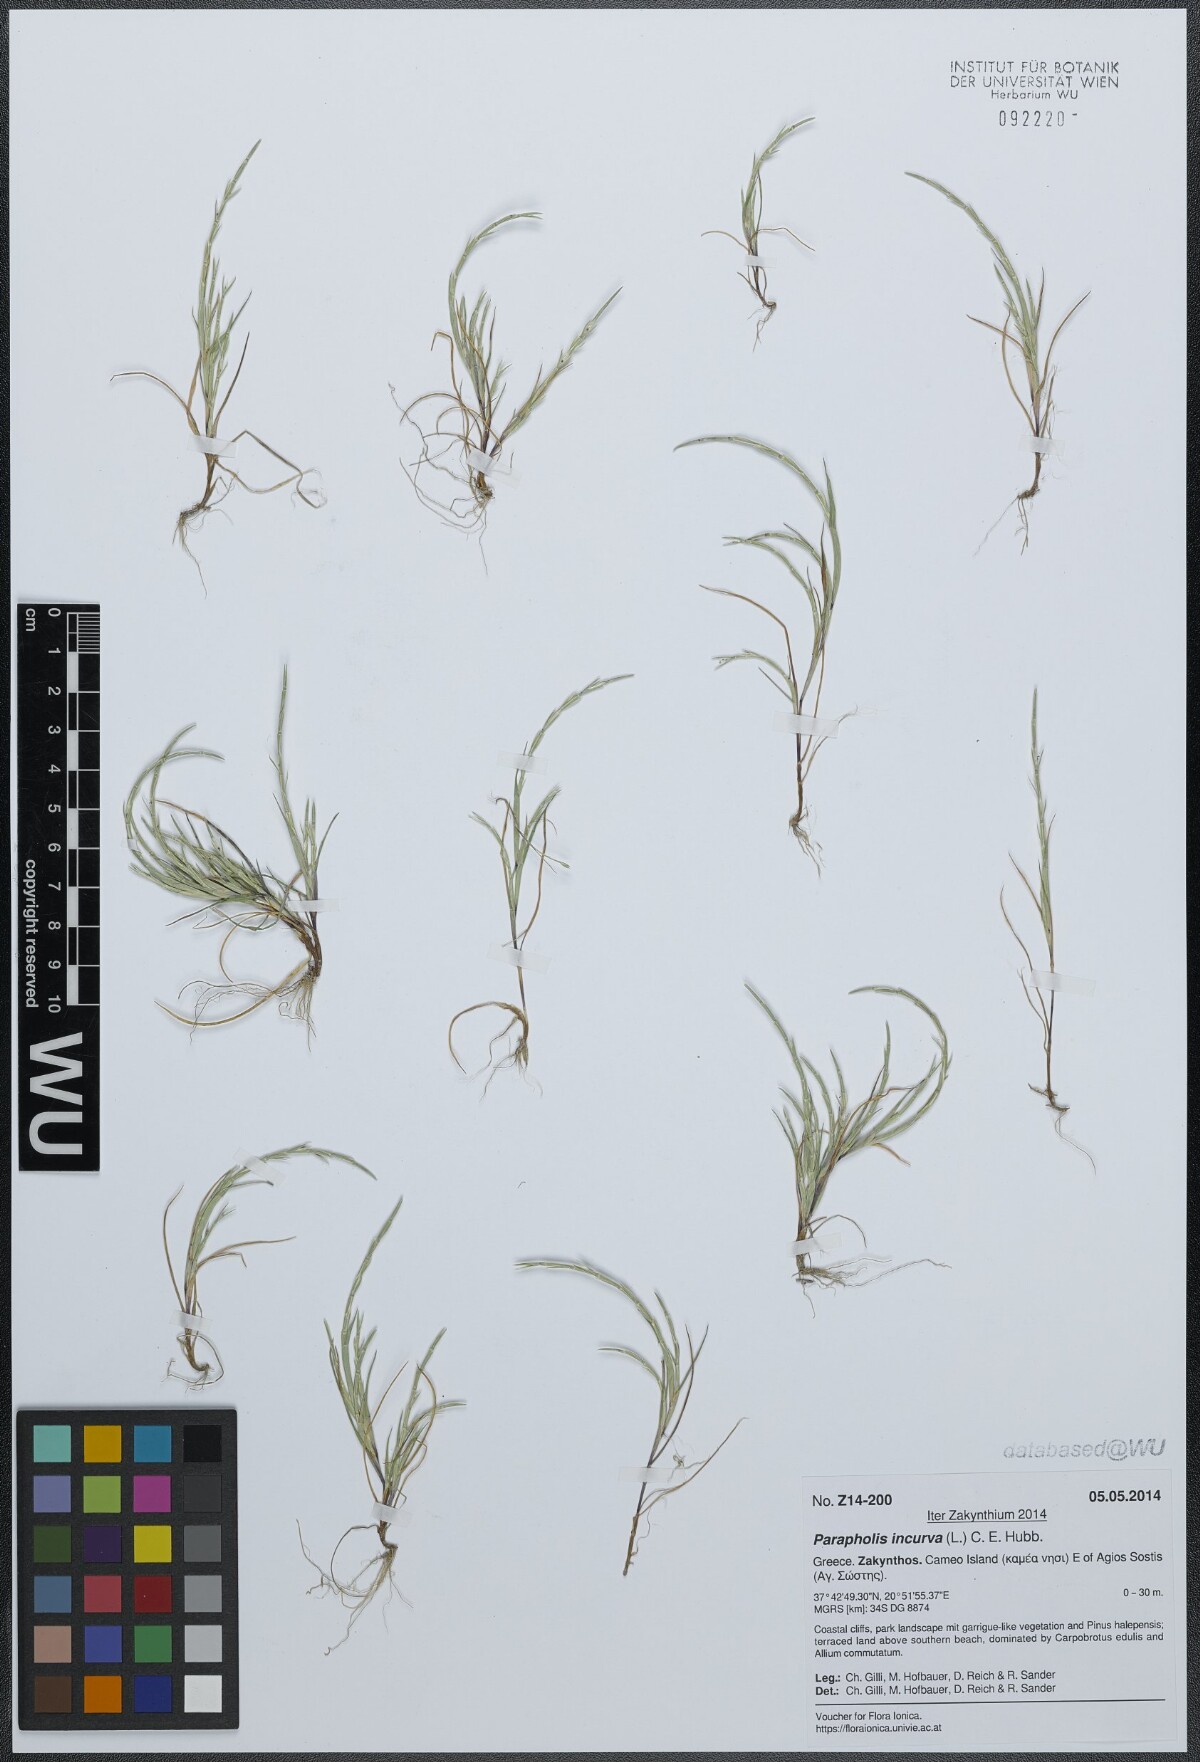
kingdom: Plantae
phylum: Tracheophyta
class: Liliopsida
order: Poales
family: Poaceae
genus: Parapholis
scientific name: Parapholis incurva
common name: Curved sicklegrass
